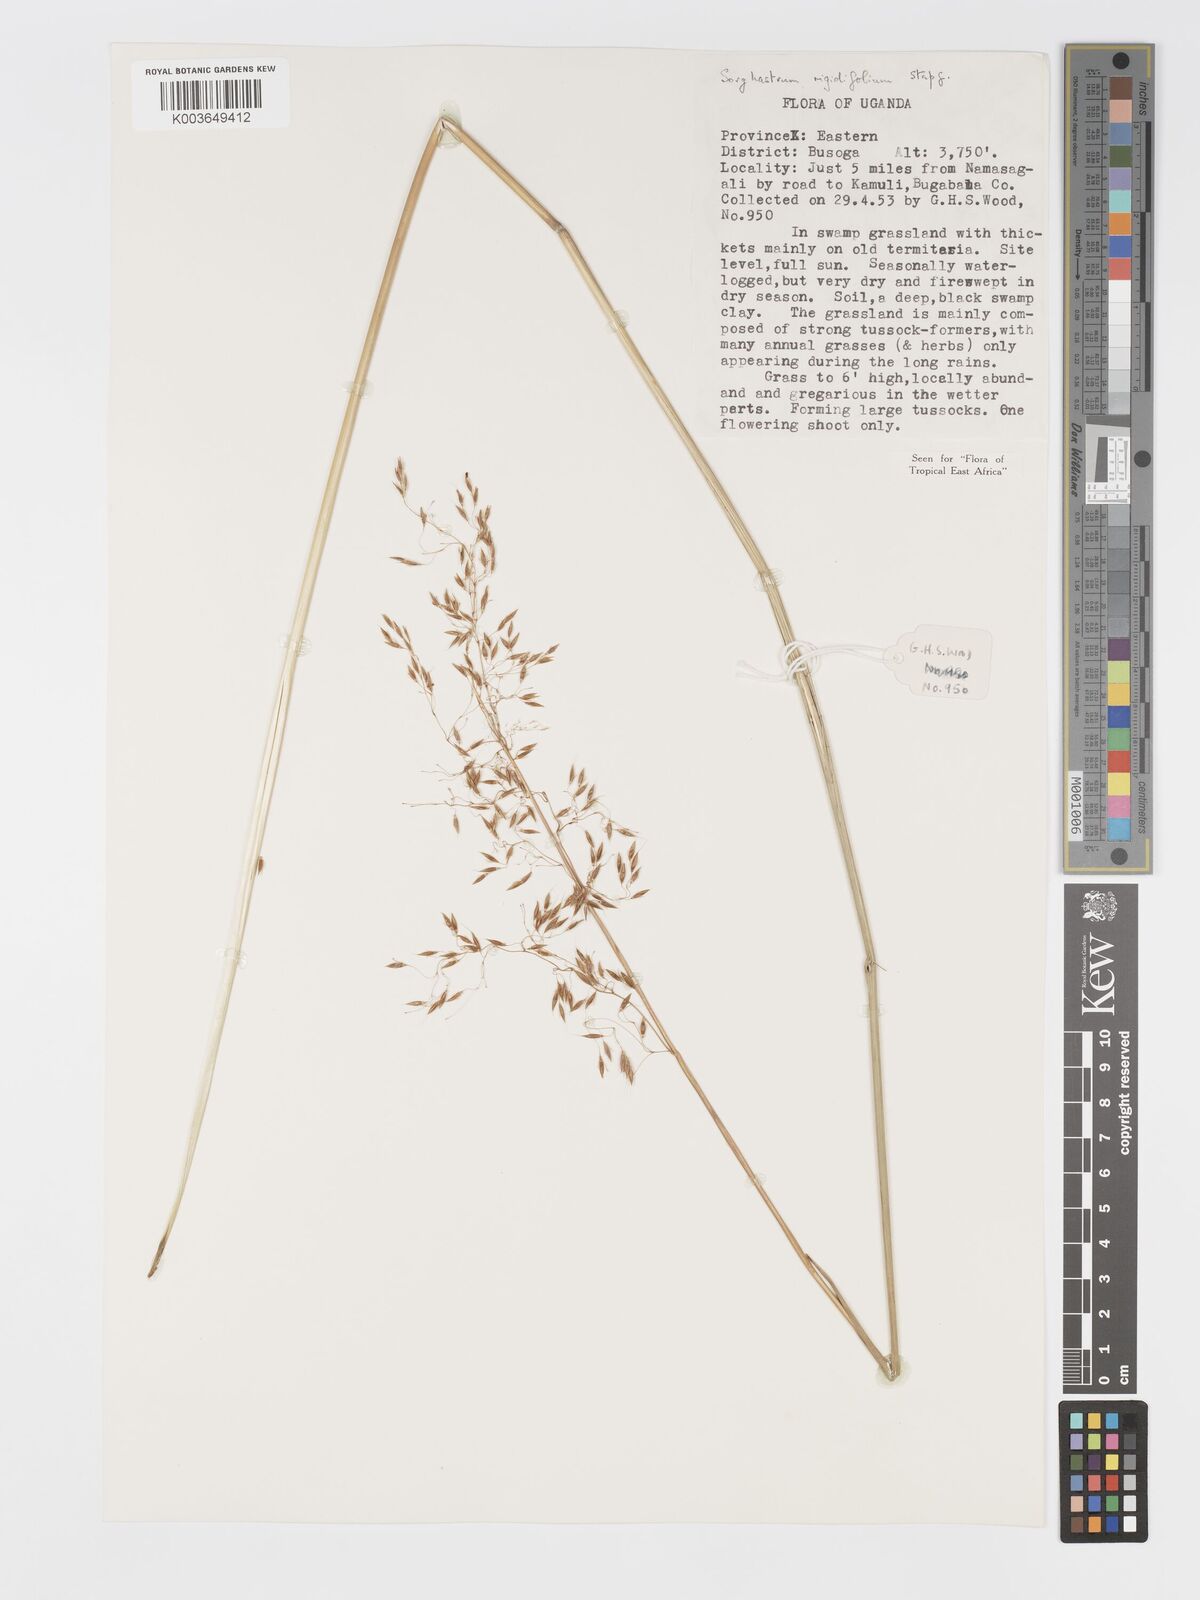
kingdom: Plantae
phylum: Tracheophyta
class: Liliopsida
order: Poales
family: Poaceae
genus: Sorghastrum
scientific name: Sorghastrum stipoides
